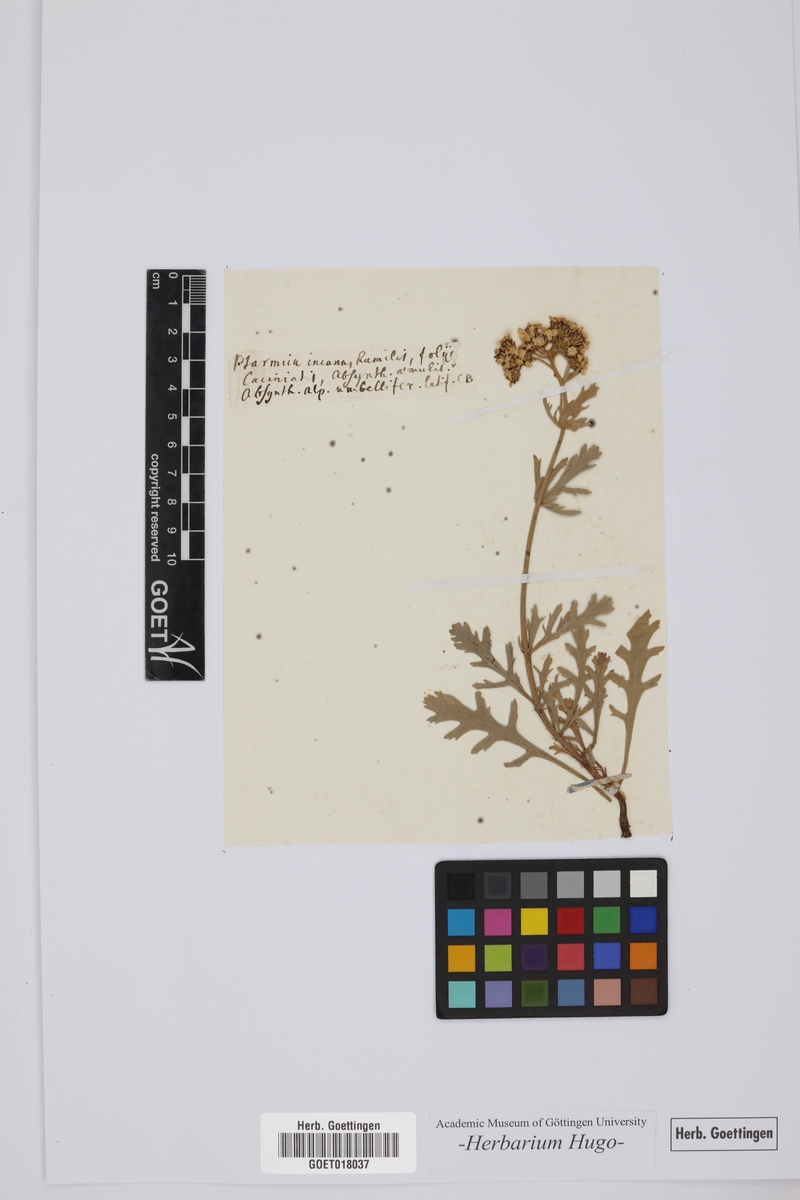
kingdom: Plantae
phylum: Tracheophyta
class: Magnoliopsida
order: Asterales
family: Asteraceae
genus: Achillea
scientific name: Achillea clavennae
